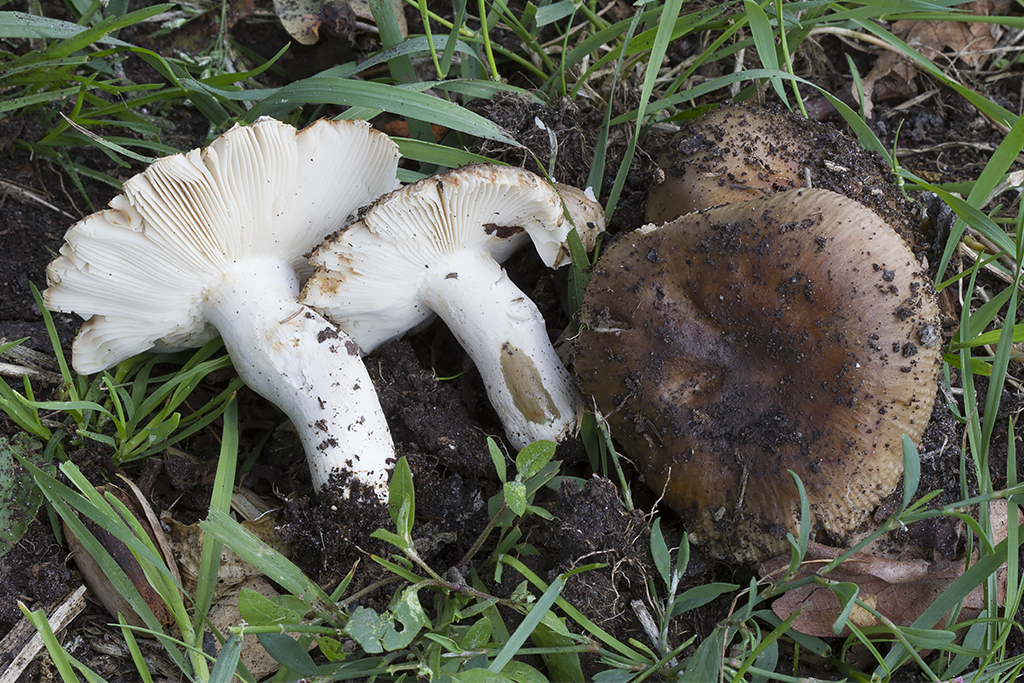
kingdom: Fungi
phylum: Basidiomycota
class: Agaricomycetes
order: Russulales
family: Russulaceae
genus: Russula
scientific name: Russula sororia
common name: brun kam-skørhat
